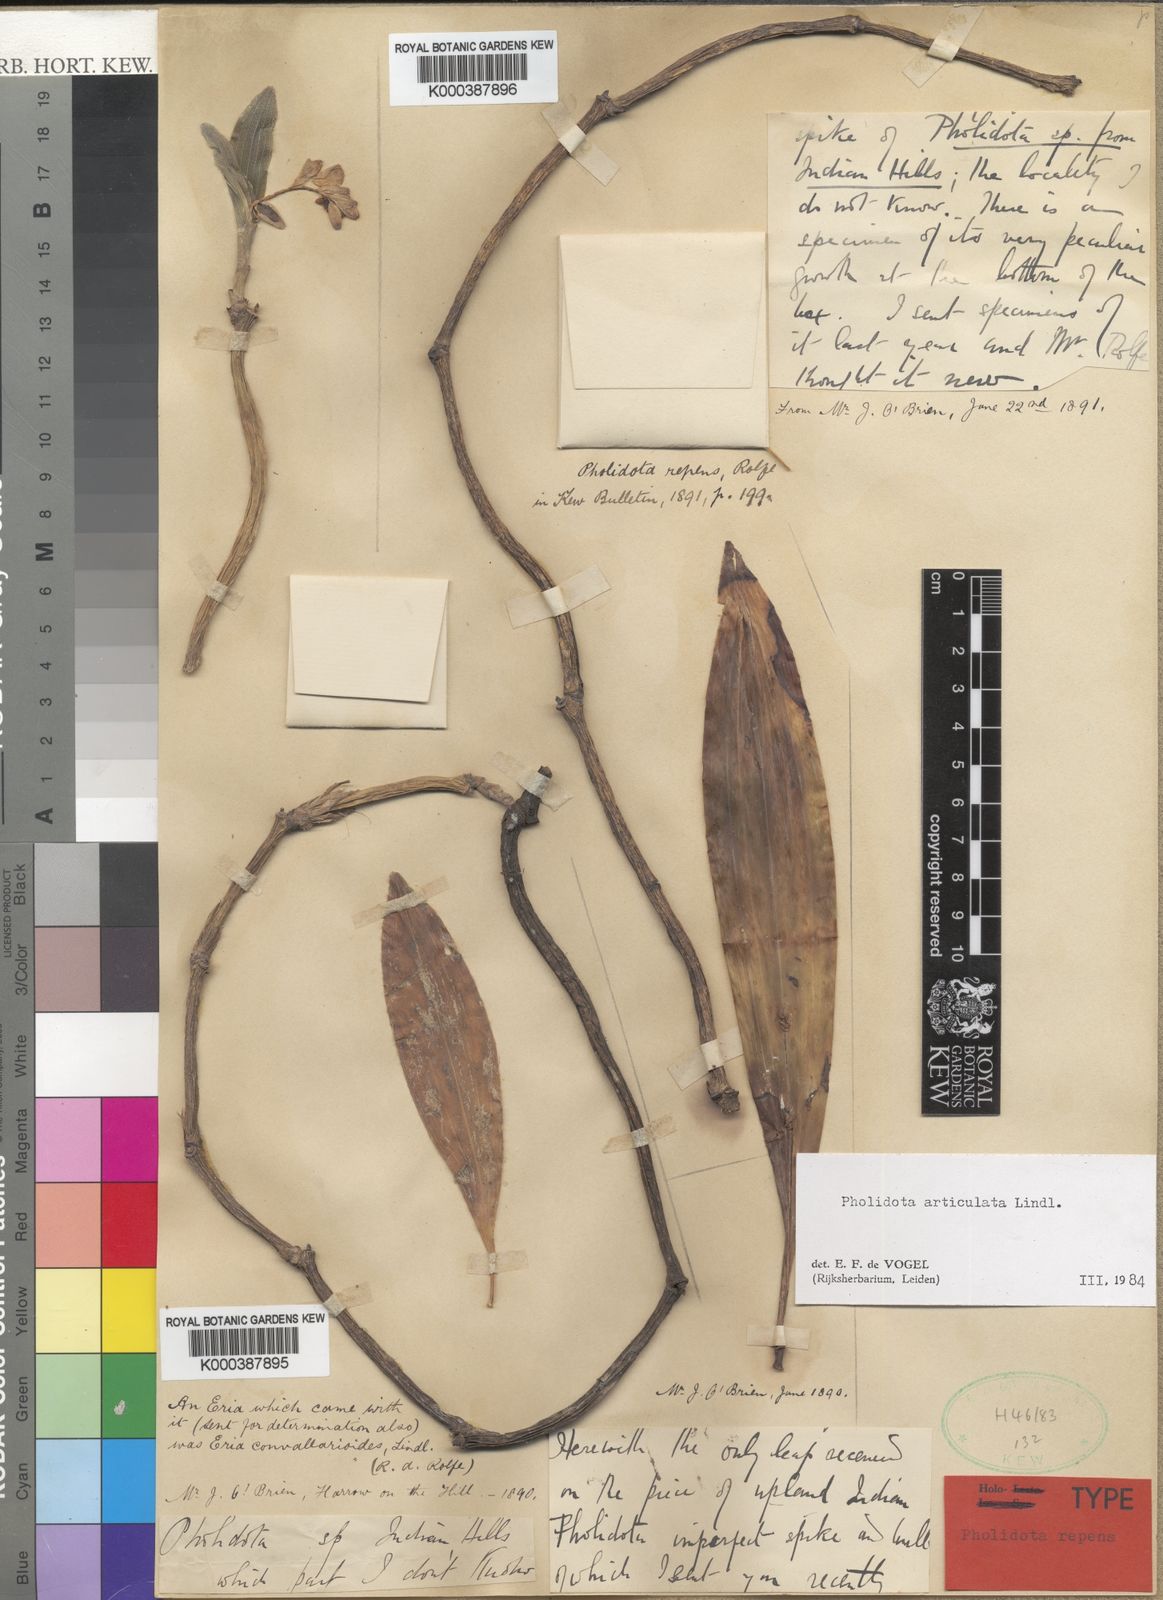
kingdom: Plantae
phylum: Tracheophyta
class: Liliopsida
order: Asparagales
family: Orchidaceae
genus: Coelogyne
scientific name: Coelogyne articulata
